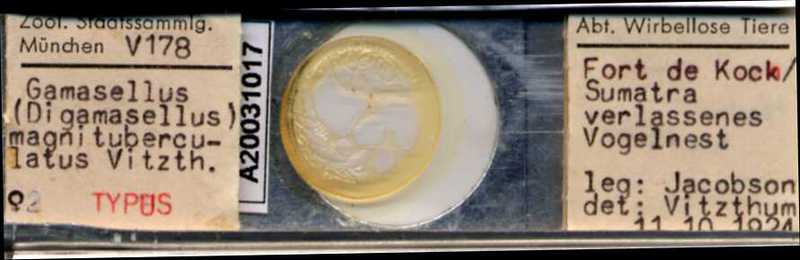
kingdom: Animalia
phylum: Arthropoda
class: Arachnida
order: Mesostigmata
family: Ascidae
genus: Asca
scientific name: Asca magnituberculata
